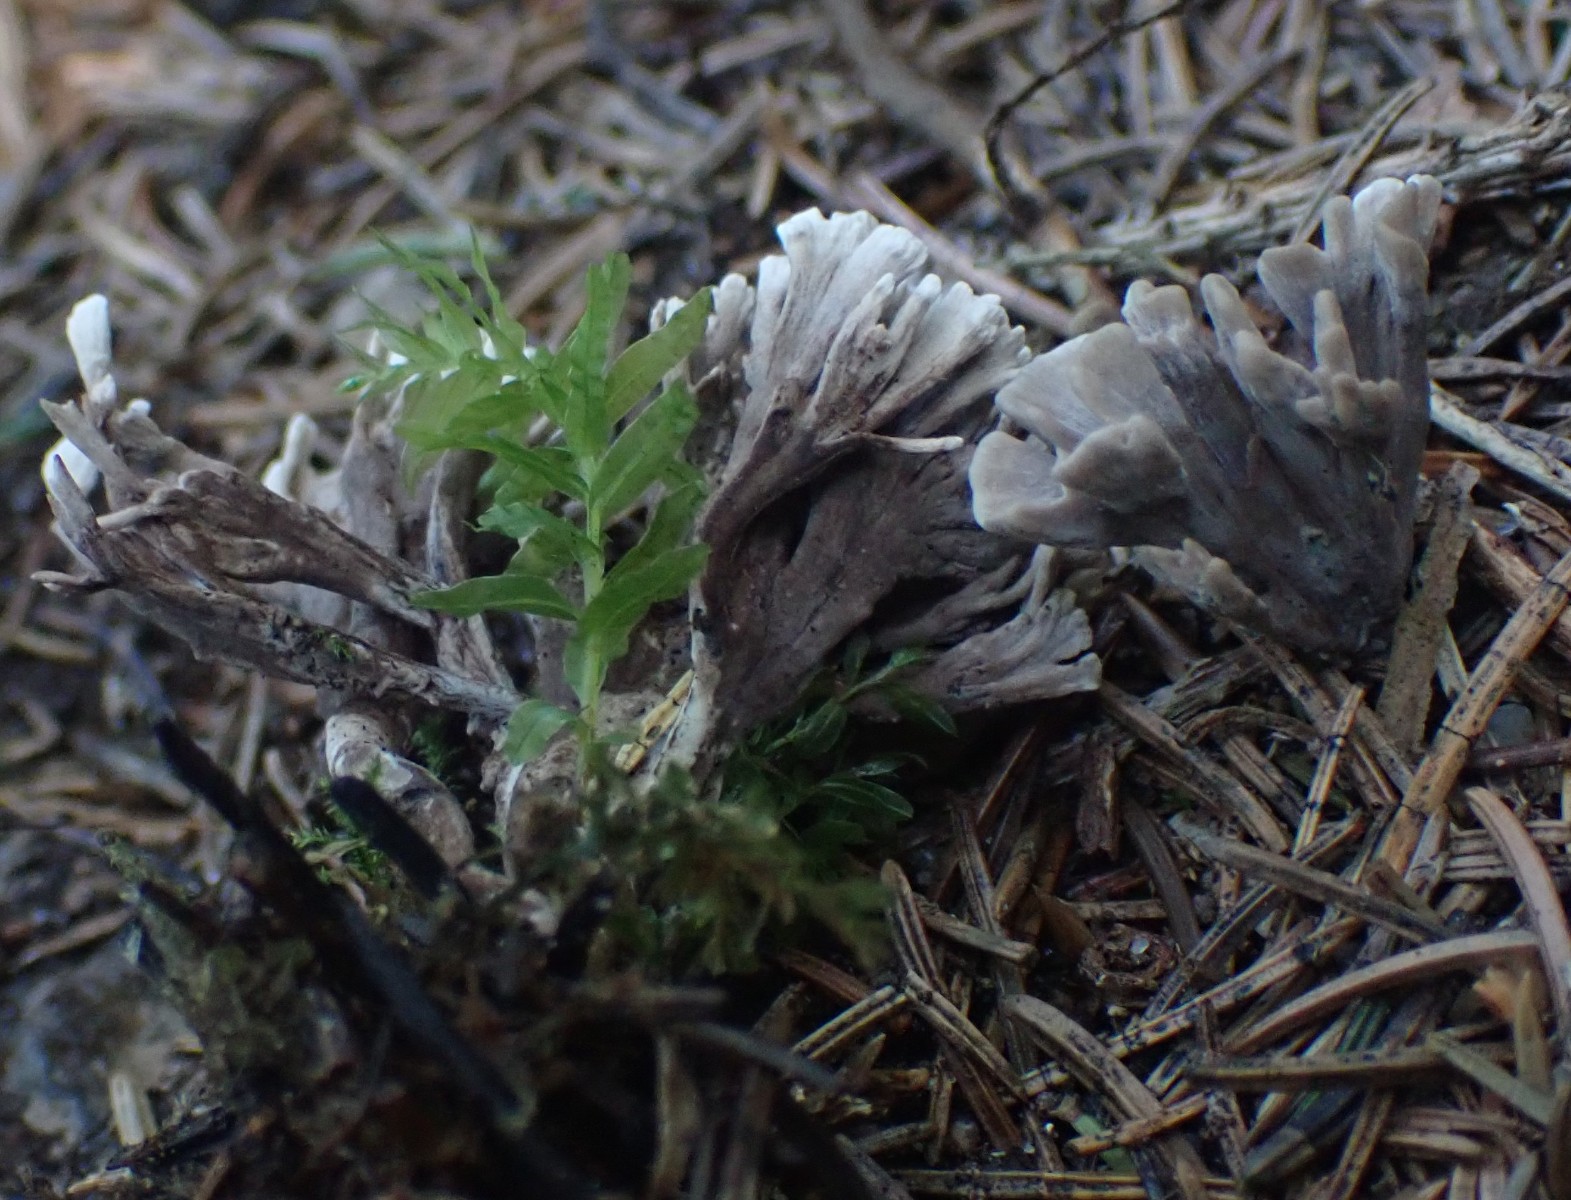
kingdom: Fungi
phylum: Basidiomycota
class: Agaricomycetes
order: Thelephorales
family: Thelephoraceae
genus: Thelephora
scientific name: Thelephora palmata
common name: grenet frynsesvamp
